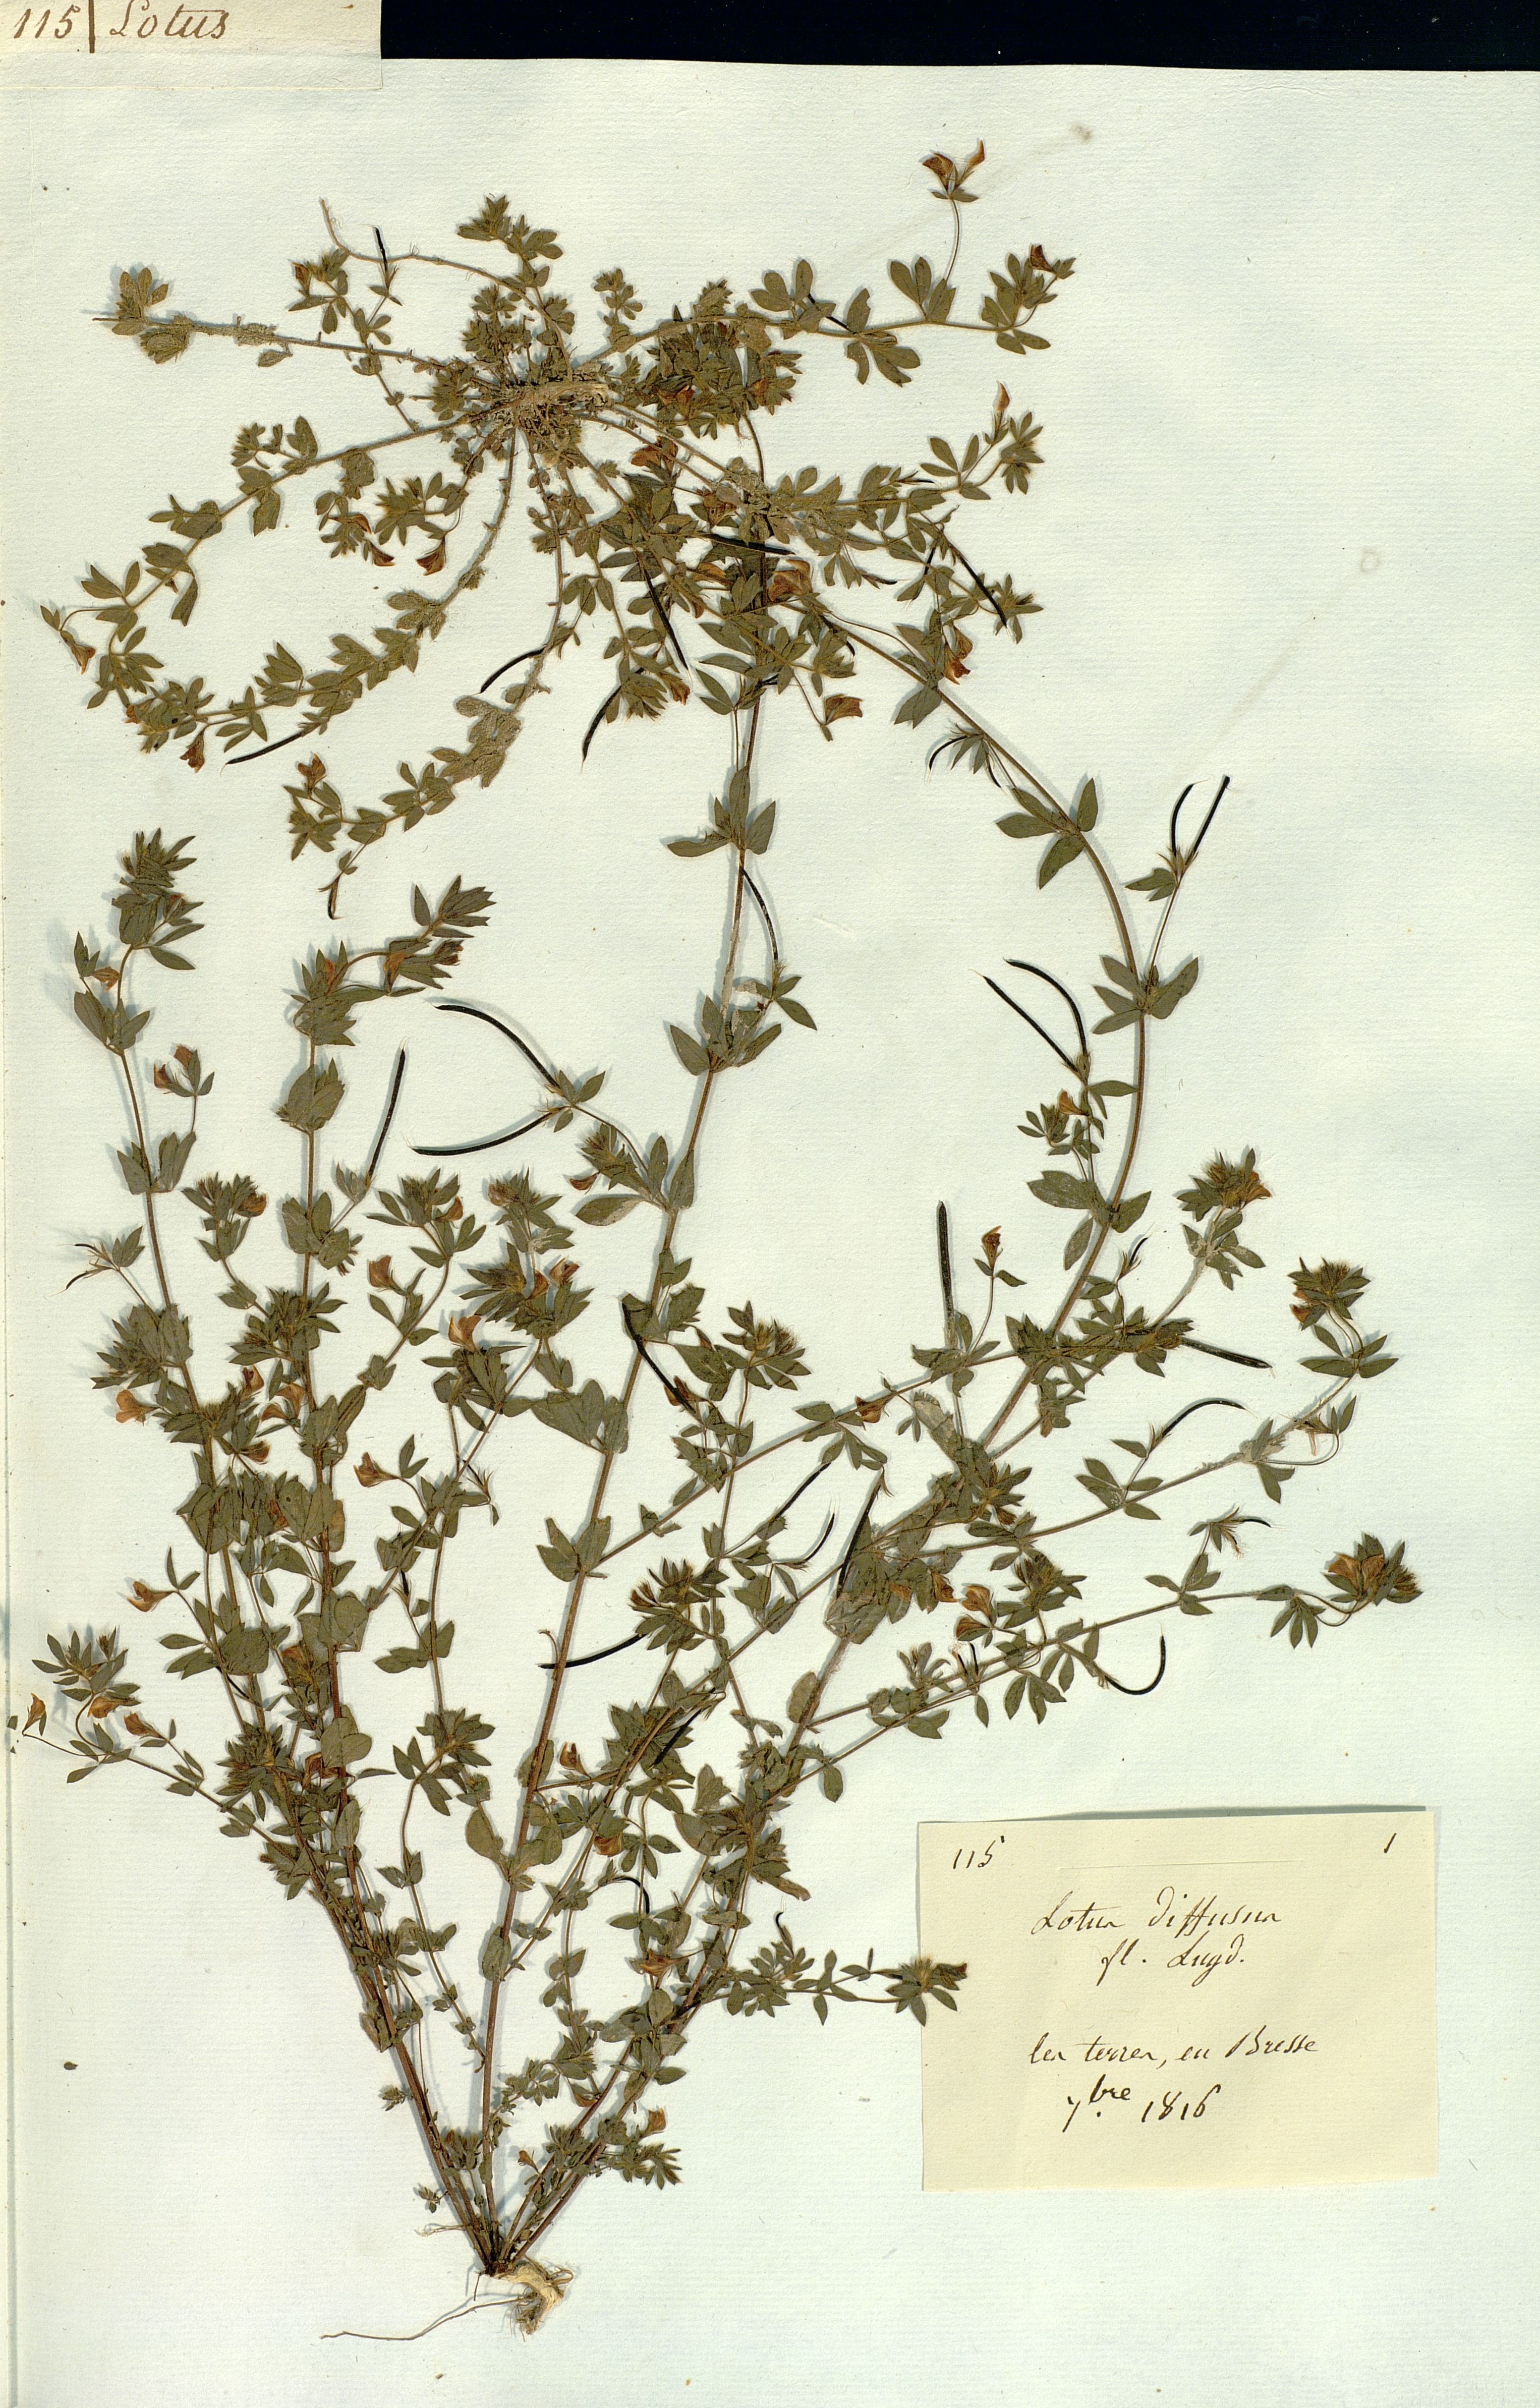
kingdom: Plantae
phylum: Tracheophyta
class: Magnoliopsida
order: Fabales
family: Fabaceae
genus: Lotus
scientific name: Lotus
